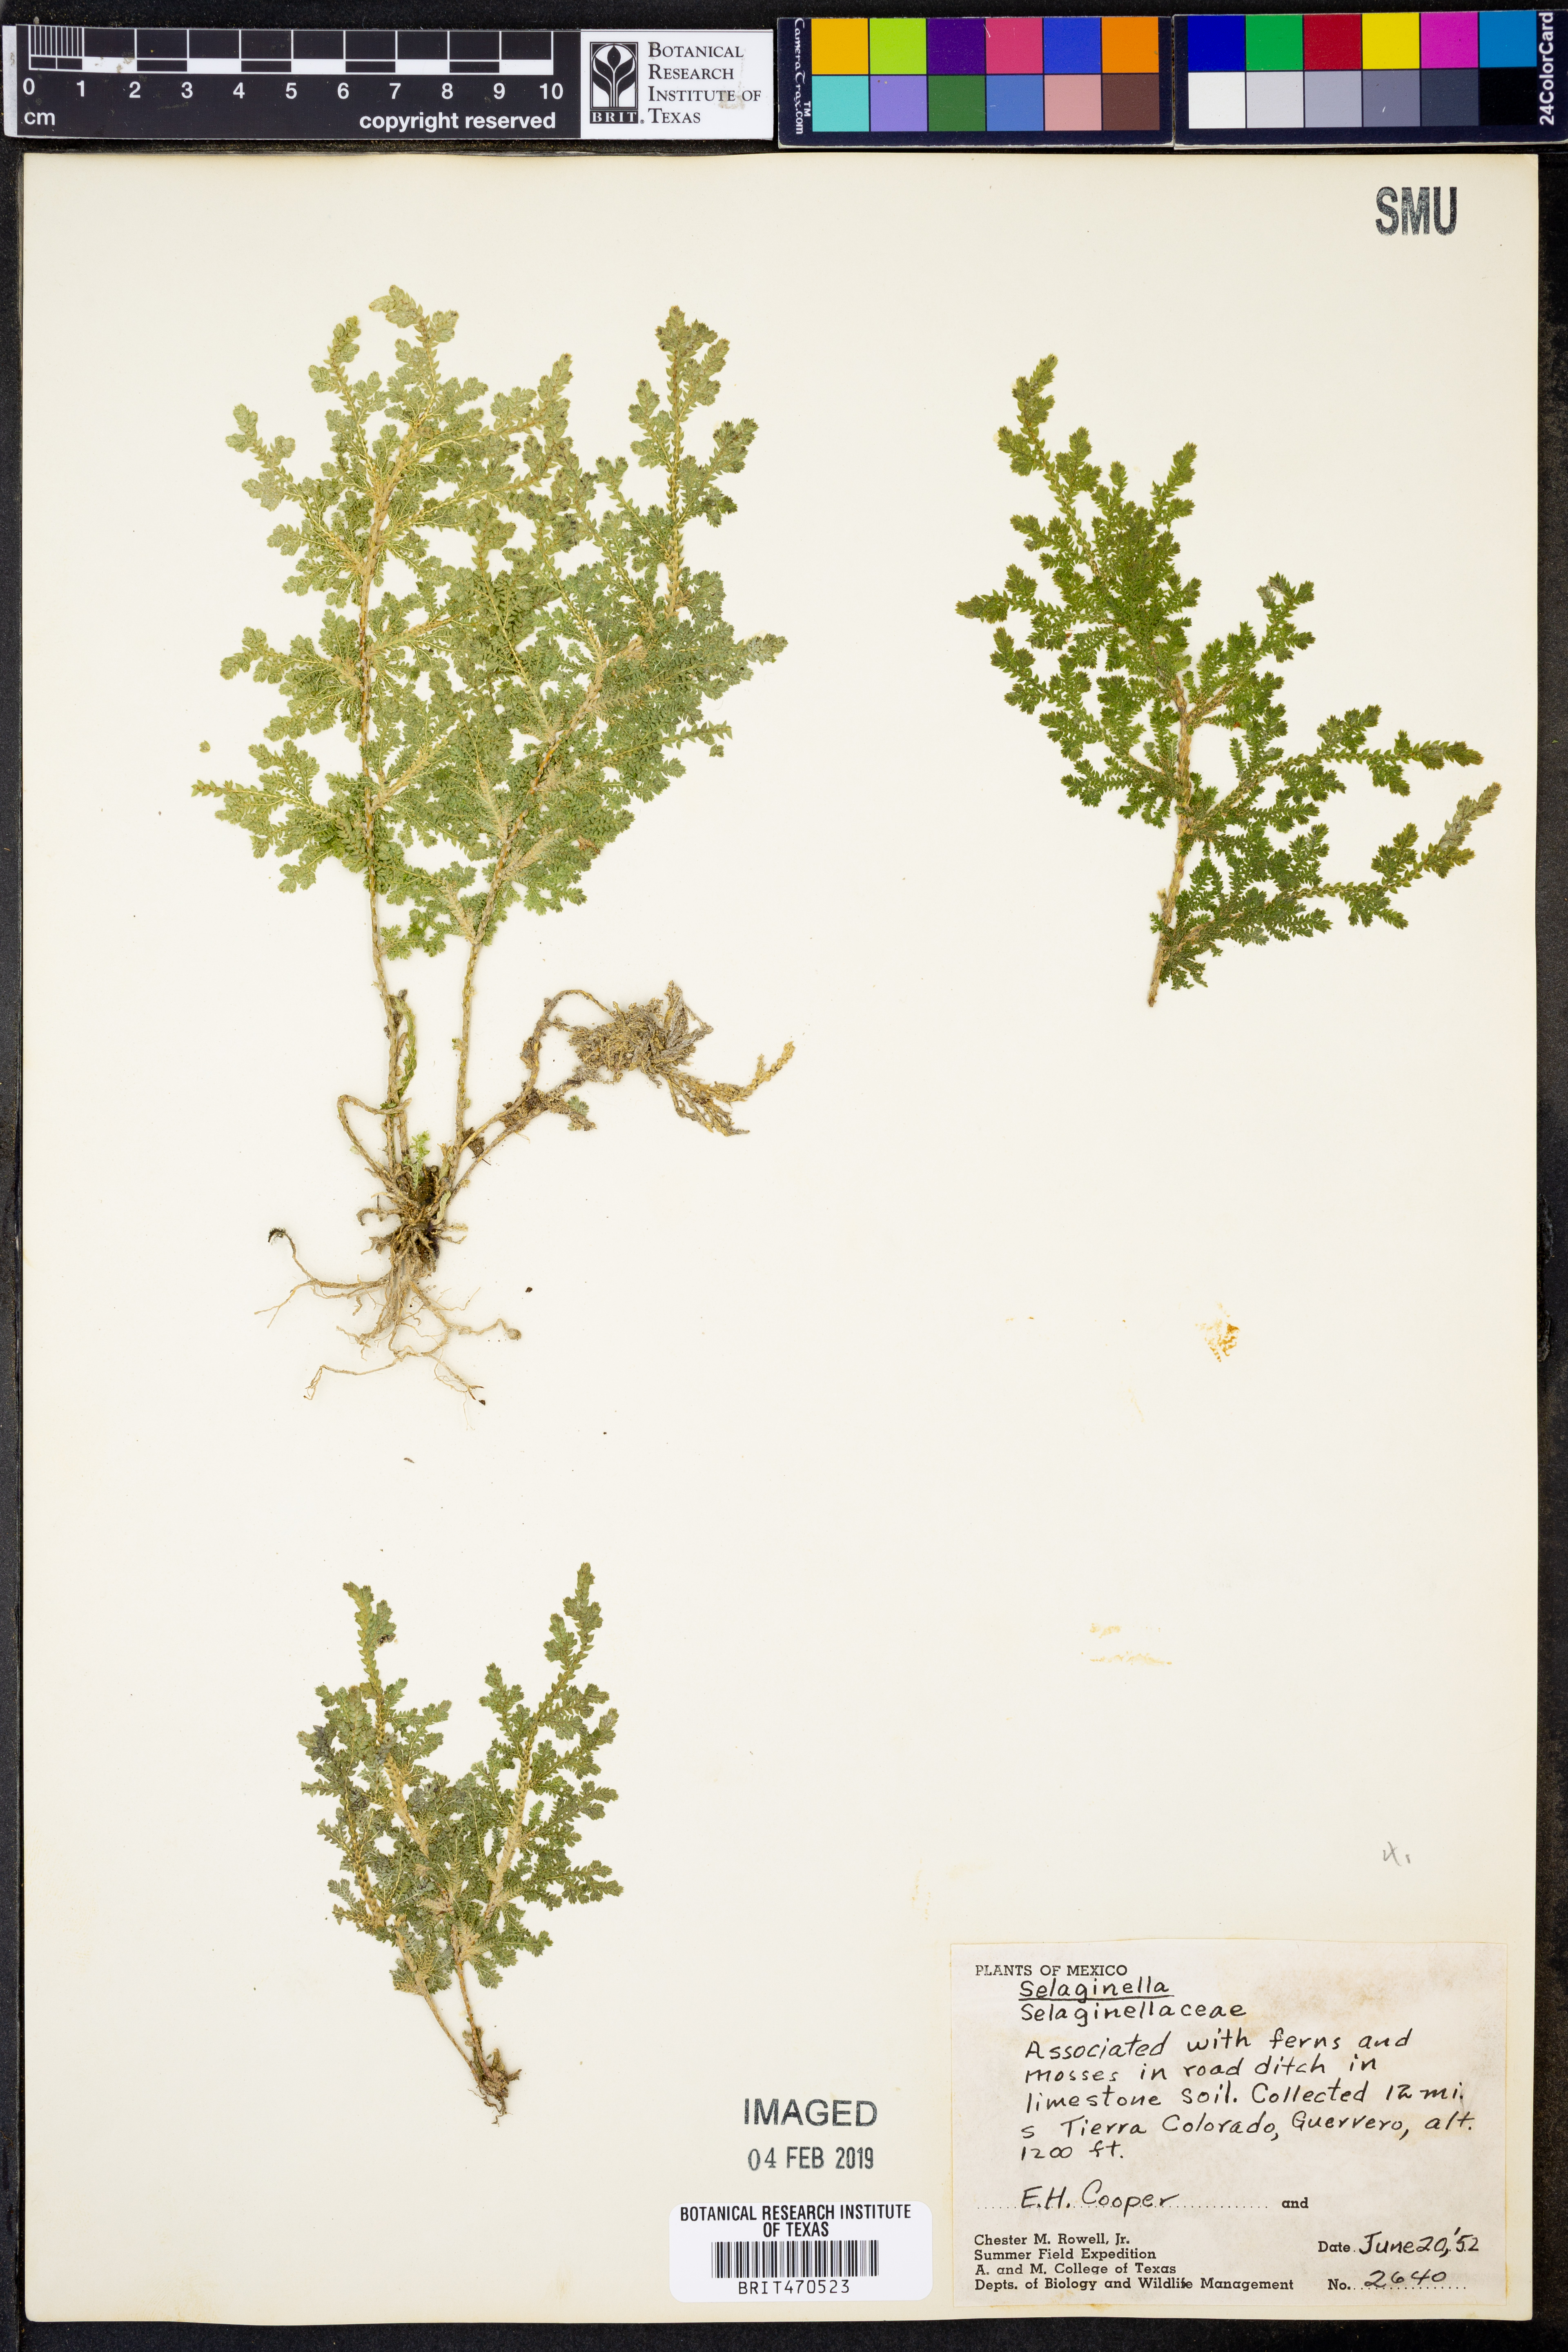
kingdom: Plantae
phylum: Tracheophyta
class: Lycopodiopsida
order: Selaginellales
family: Selaginellaceae
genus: Selaginella
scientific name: Selaginella
